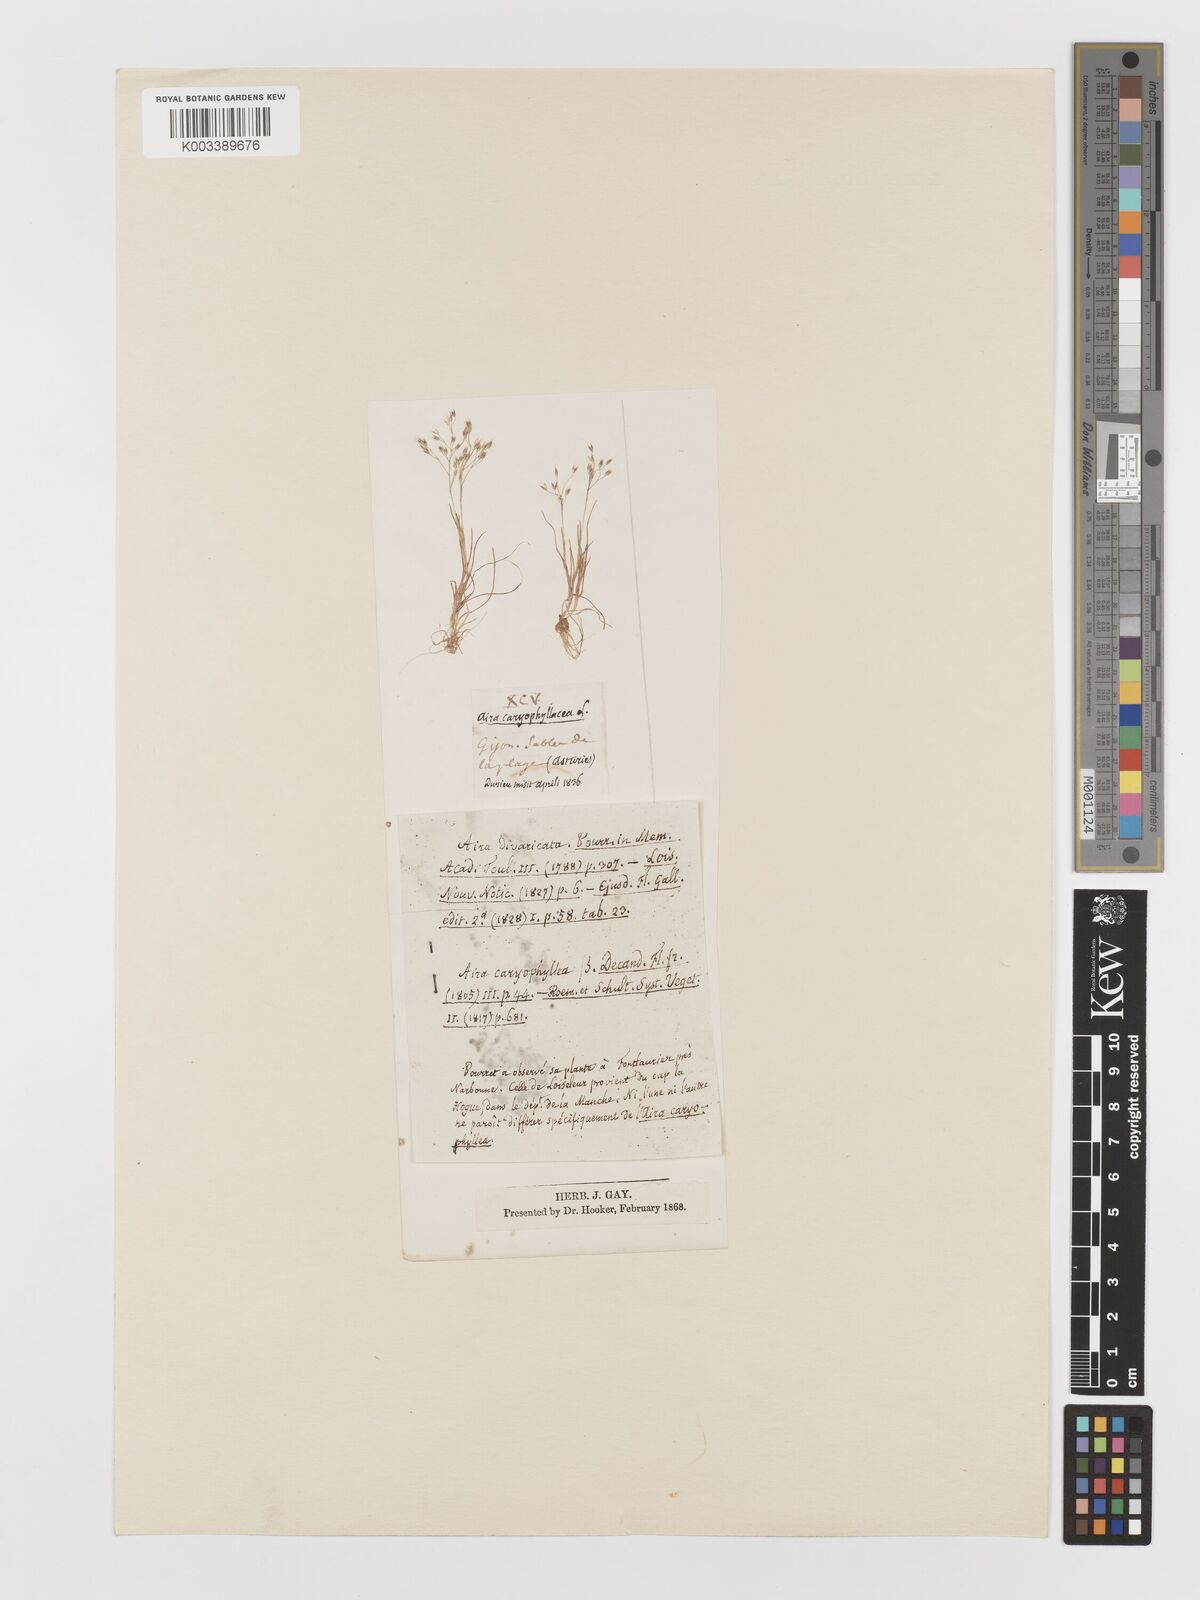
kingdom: Plantae
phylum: Tracheophyta
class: Liliopsida
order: Poales
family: Poaceae
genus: Aira
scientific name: Aira caryophyllea
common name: Silver hairgrass
